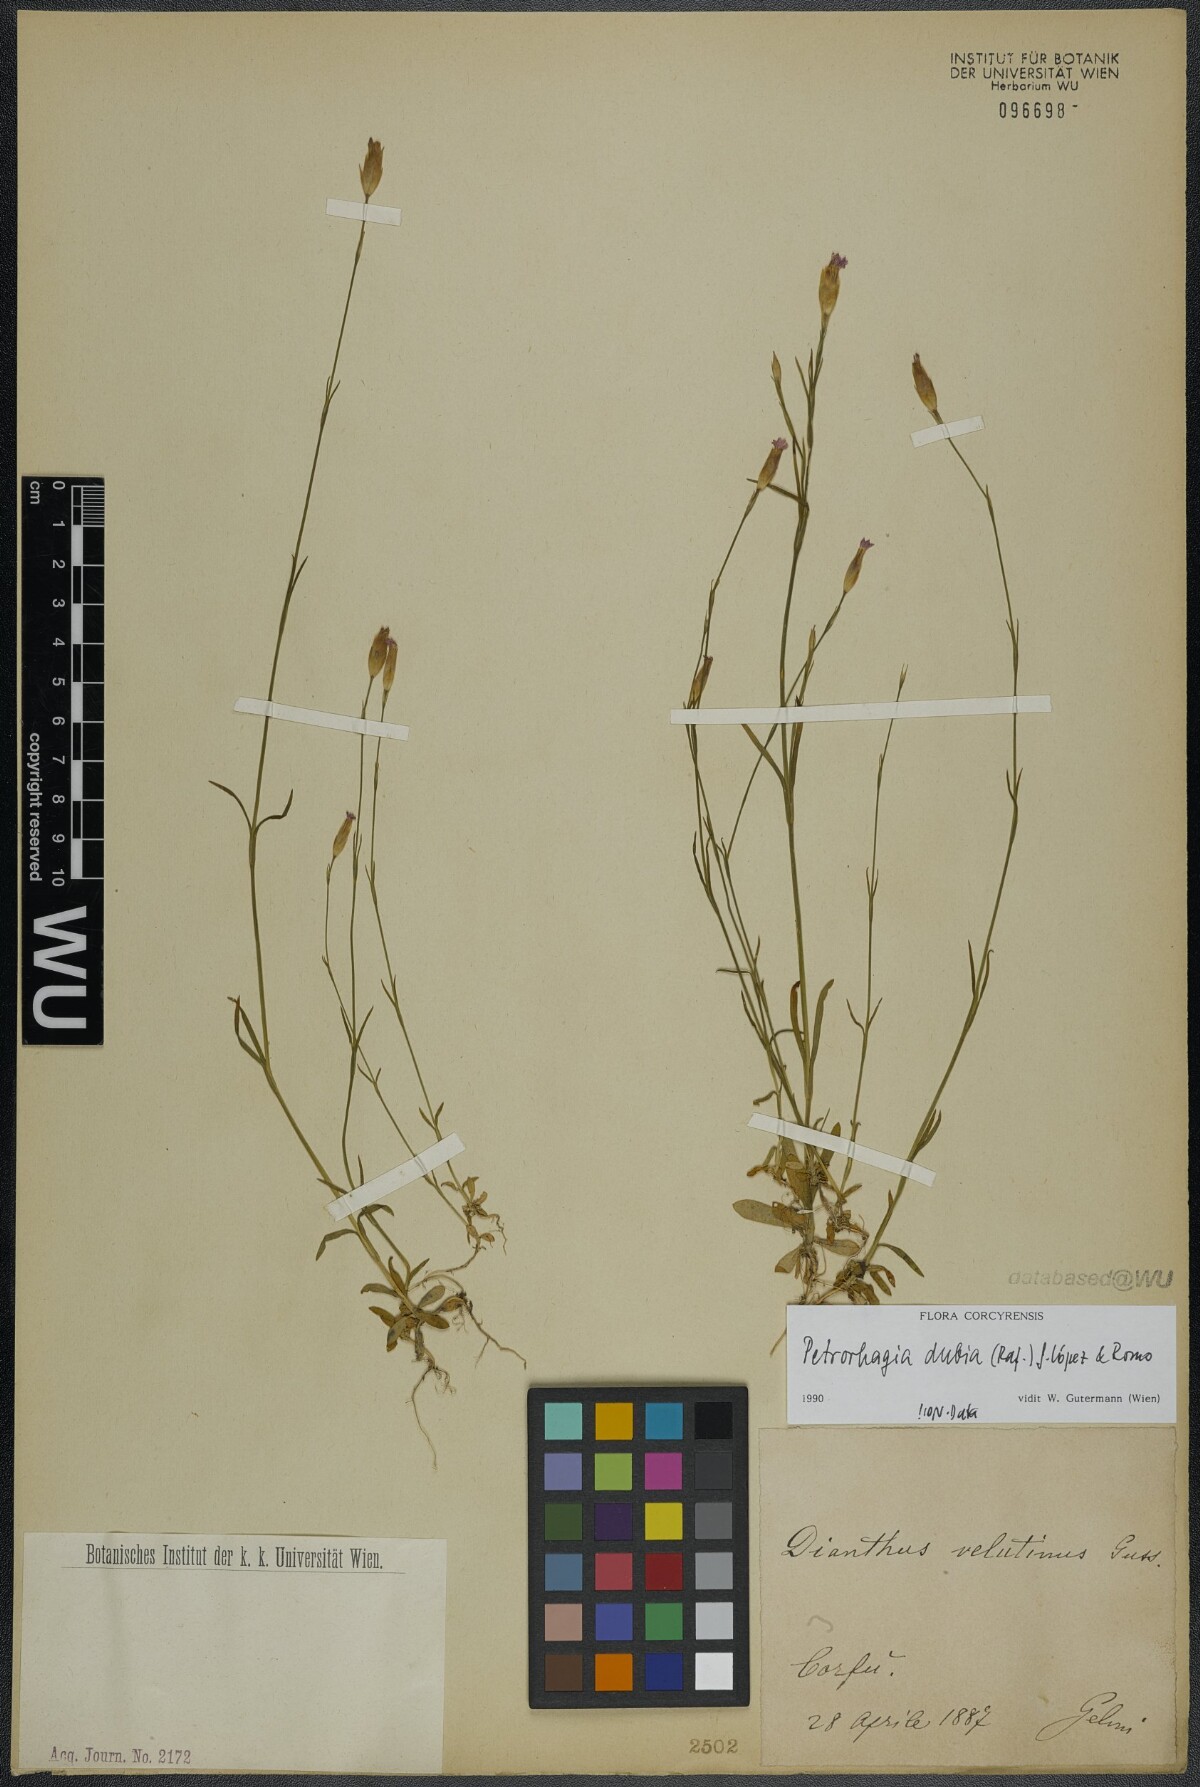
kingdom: Plantae
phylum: Tracheophyta
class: Magnoliopsida
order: Caryophyllales
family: Caryophyllaceae
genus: Petrorhagia
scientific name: Petrorhagia dubia
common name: Hairypink
